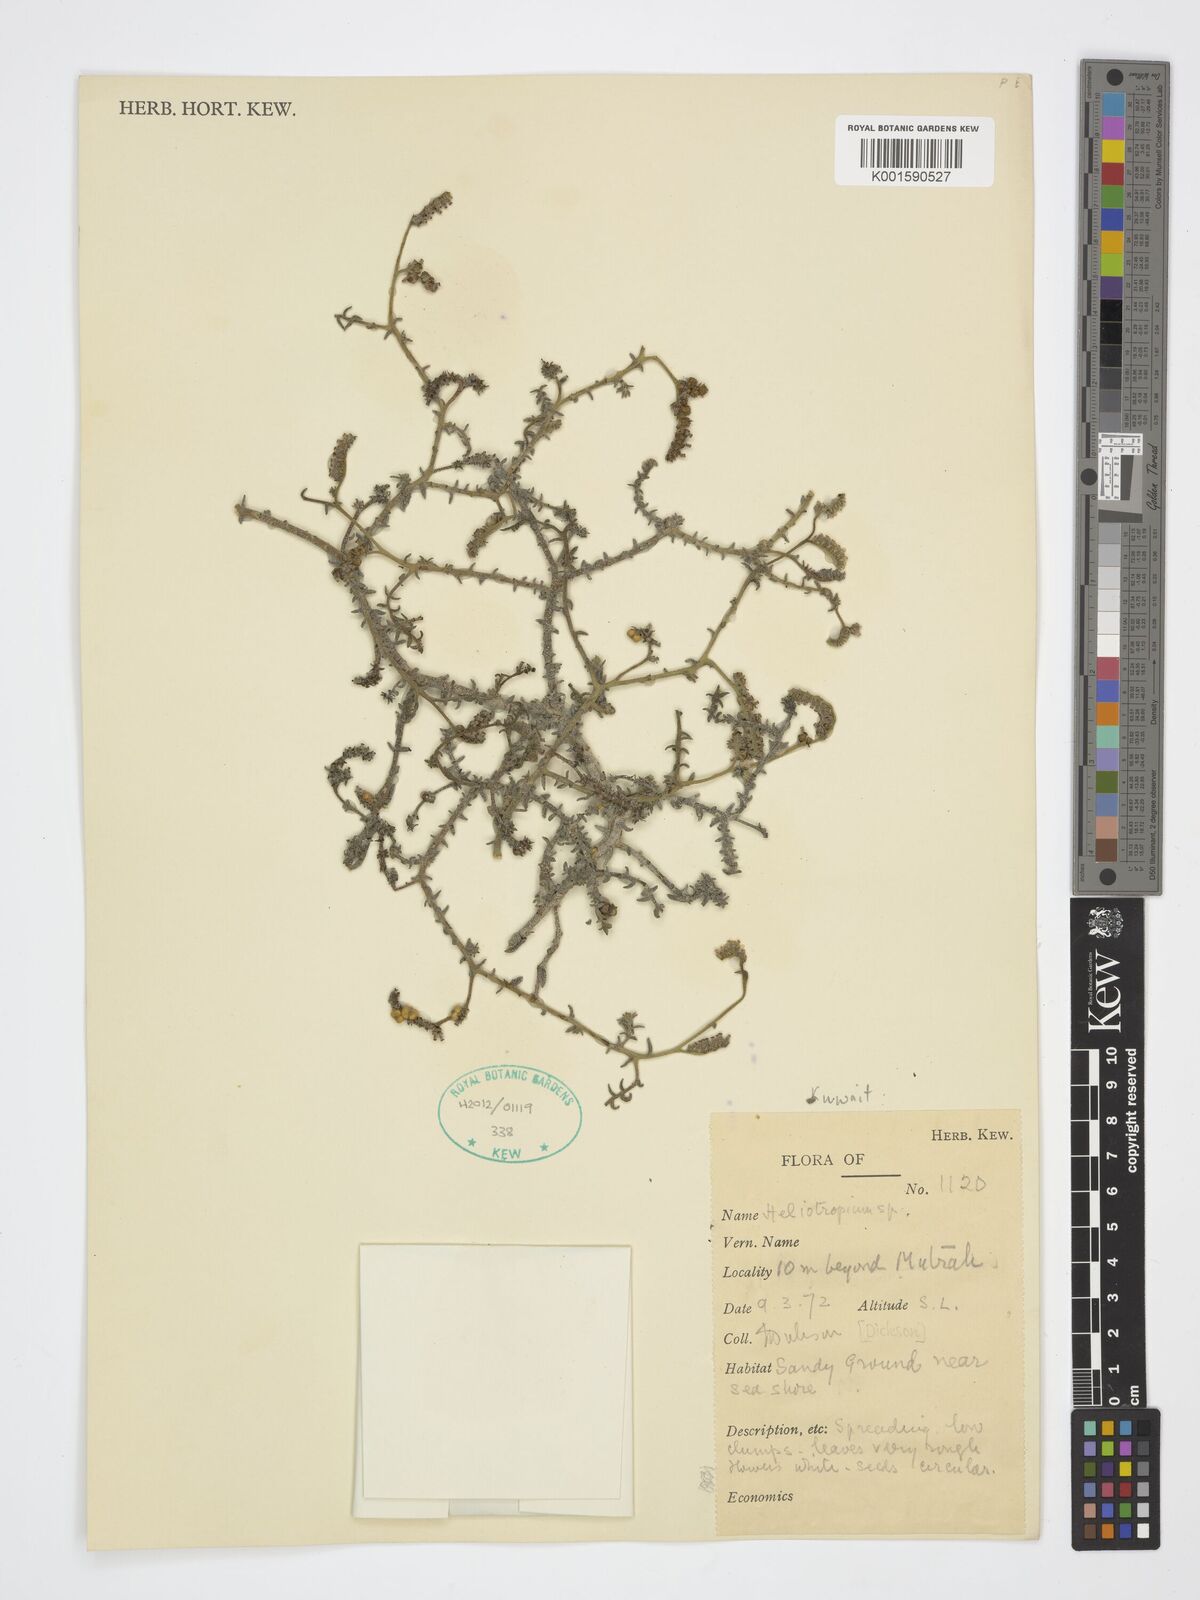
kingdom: Plantae
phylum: Tracheophyta
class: Magnoliopsida
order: Boraginales
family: Heliotropiaceae
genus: Heliotropium
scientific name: Heliotropium
